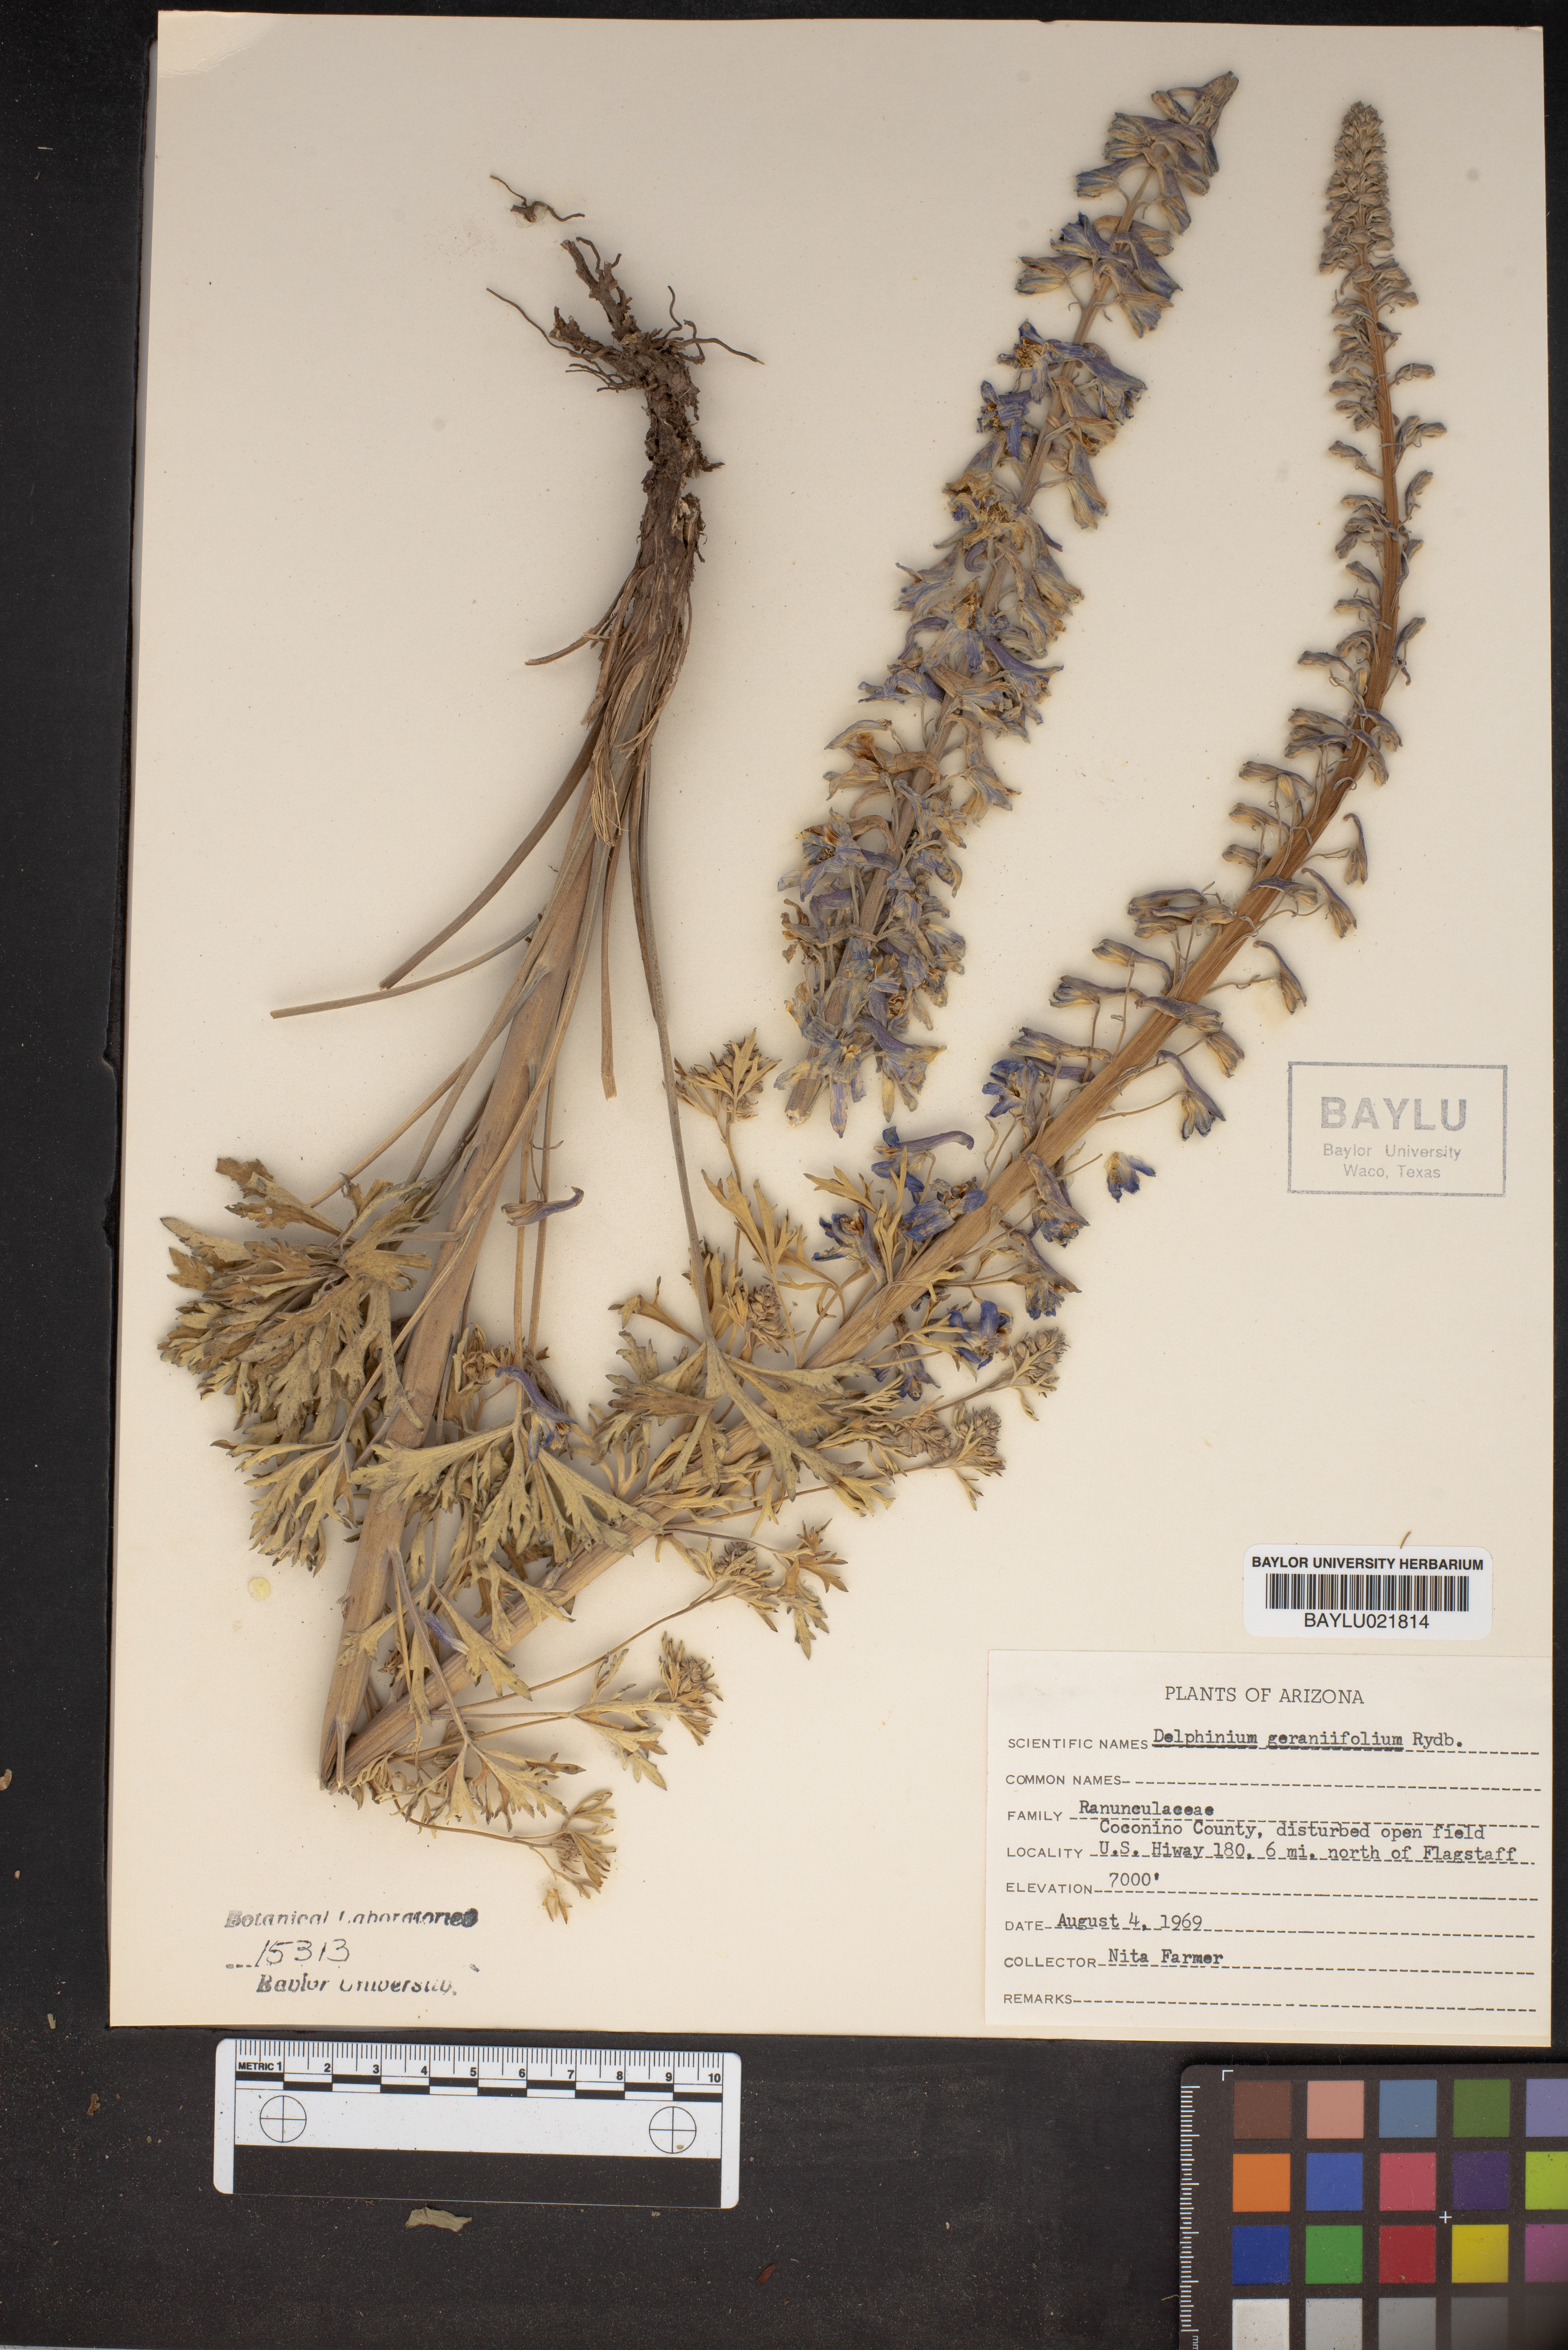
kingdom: Plantae
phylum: Tracheophyta
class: Magnoliopsida
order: Ranunculales
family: Ranunculaceae
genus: Delphinium
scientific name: Delphinium geraniifolium
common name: Mogollon larkspur
